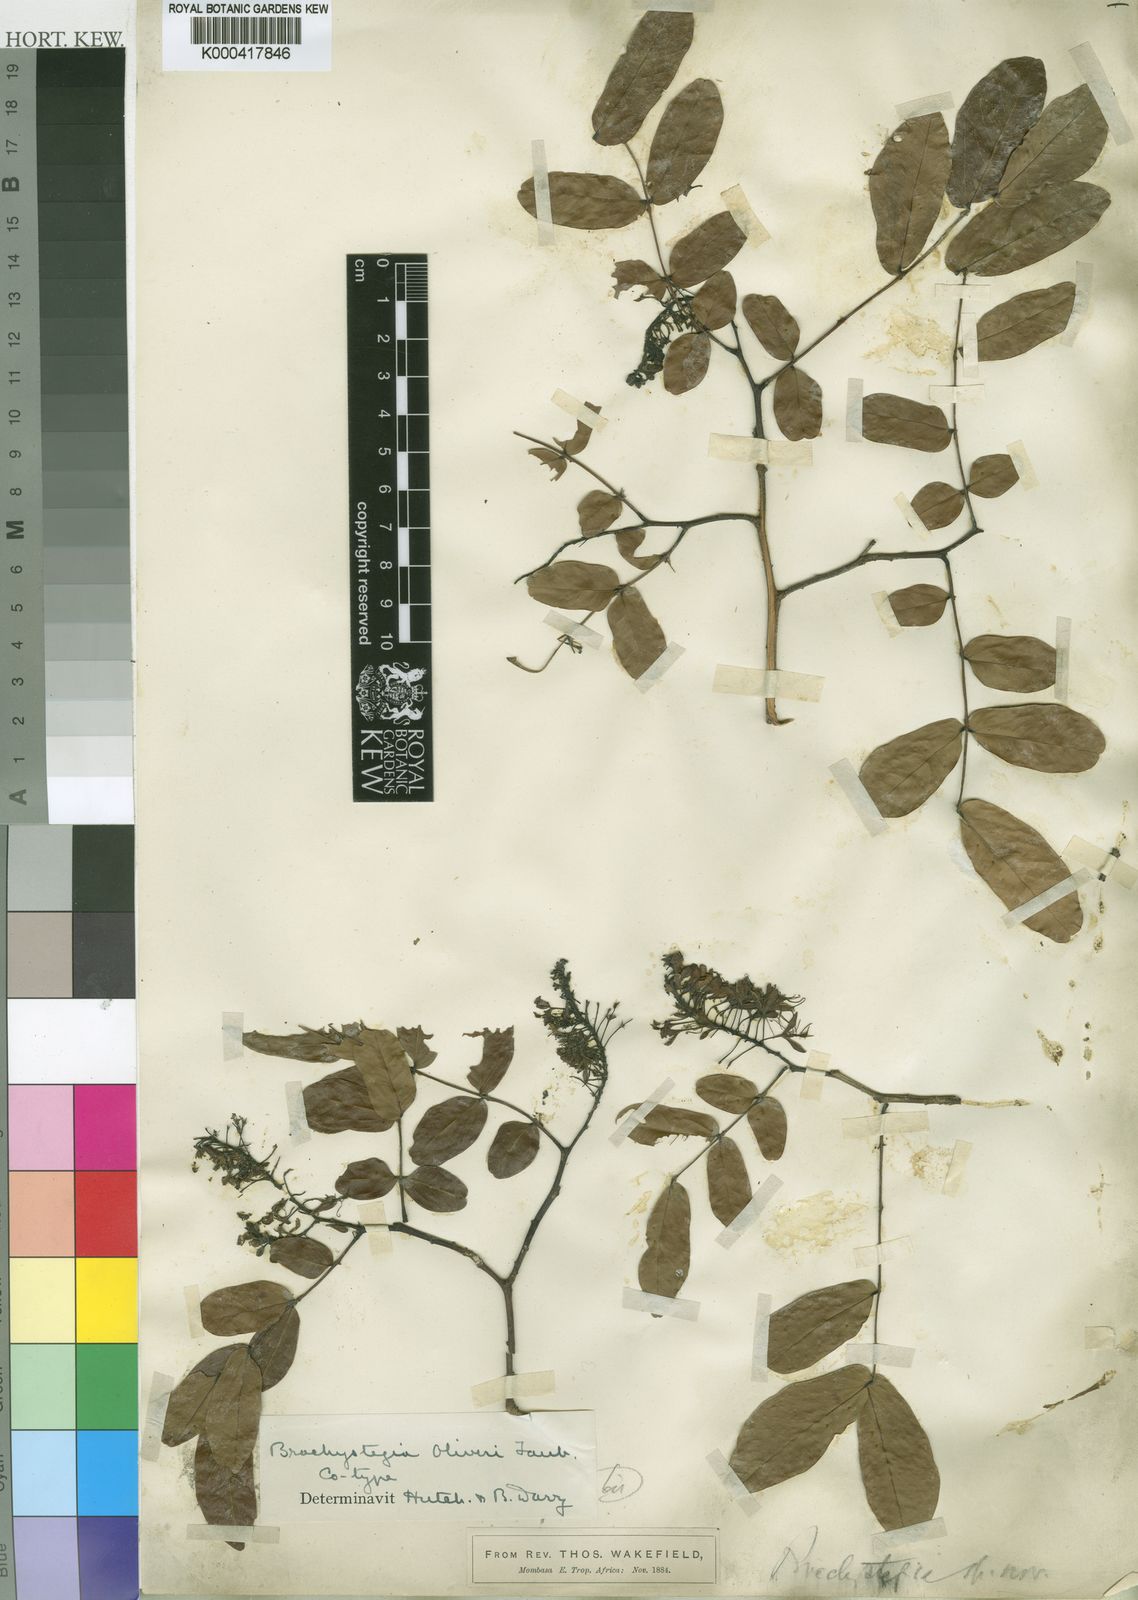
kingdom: Plantae
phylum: Tracheophyta
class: Magnoliopsida
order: Fabales
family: Fabaceae
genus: Brachystegia
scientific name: Brachystegia spiciformis
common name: Zebrawood
